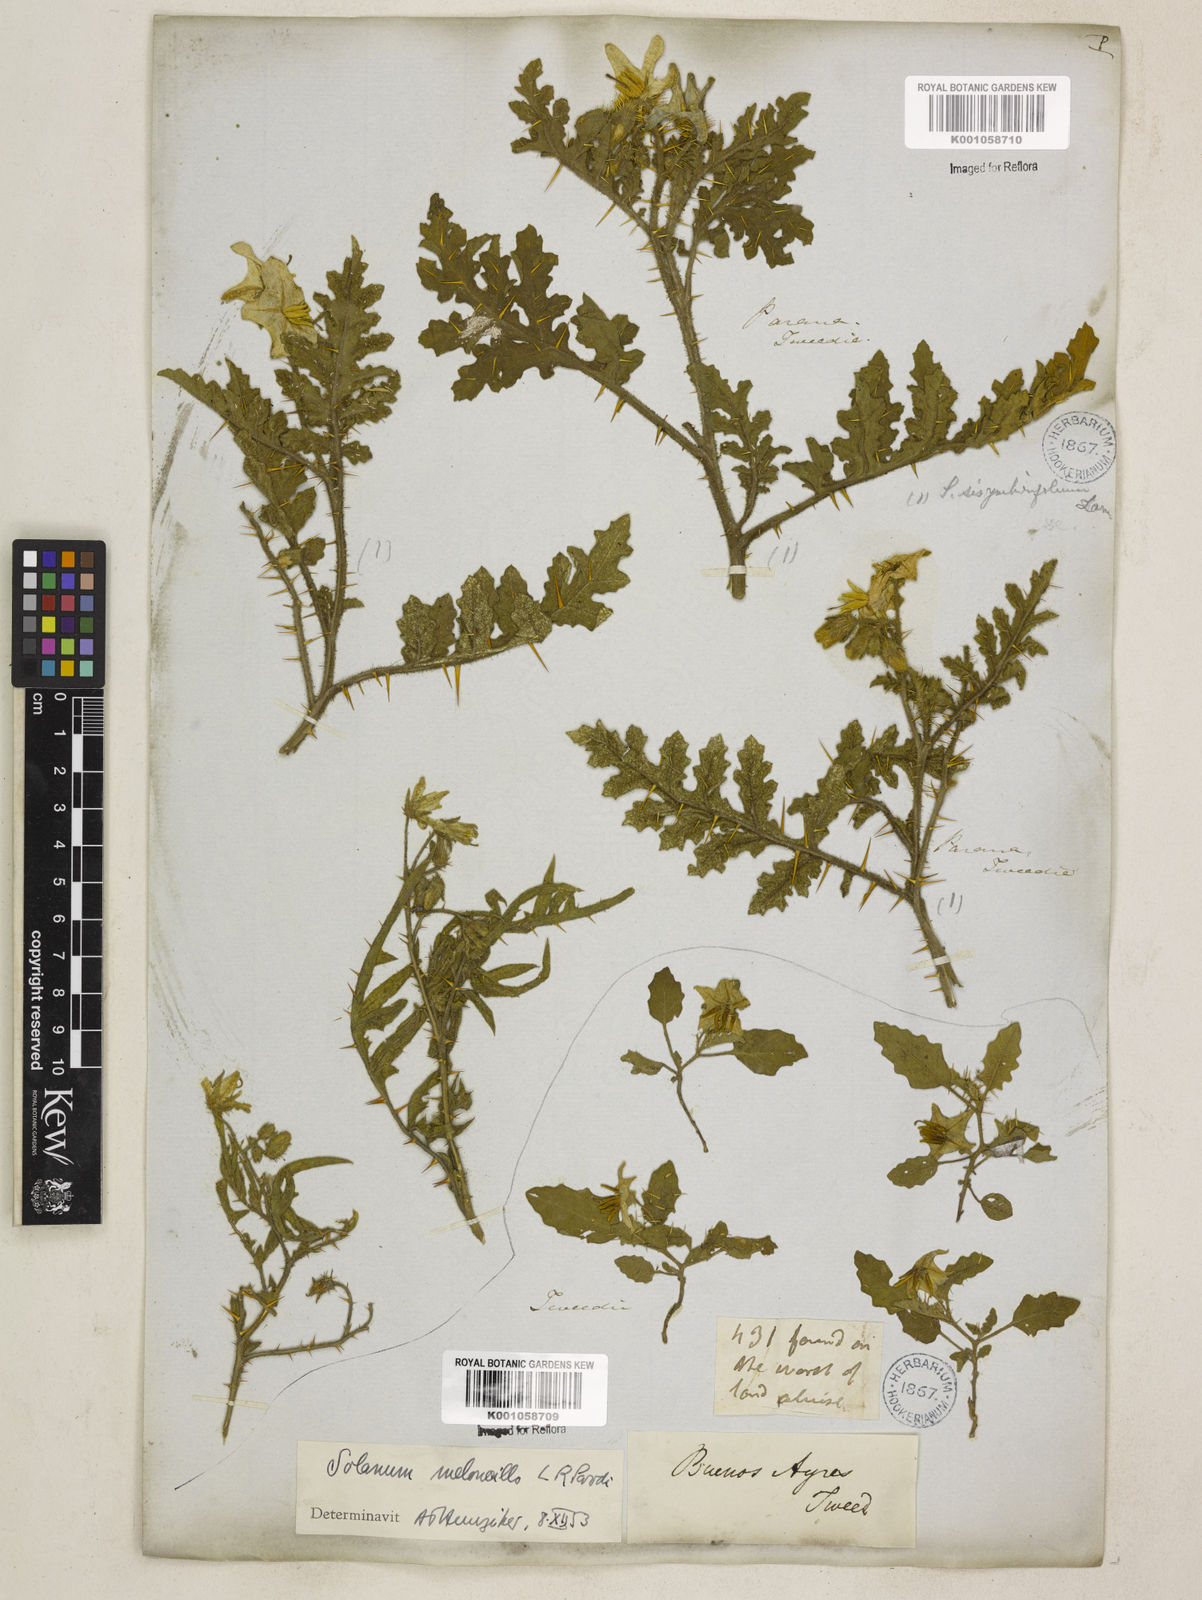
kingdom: Plantae
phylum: Tracheophyta
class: Magnoliopsida
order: Solanales
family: Solanaceae
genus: Solanum
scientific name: Solanum sisymbriifolium
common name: Red buffalo-bur
